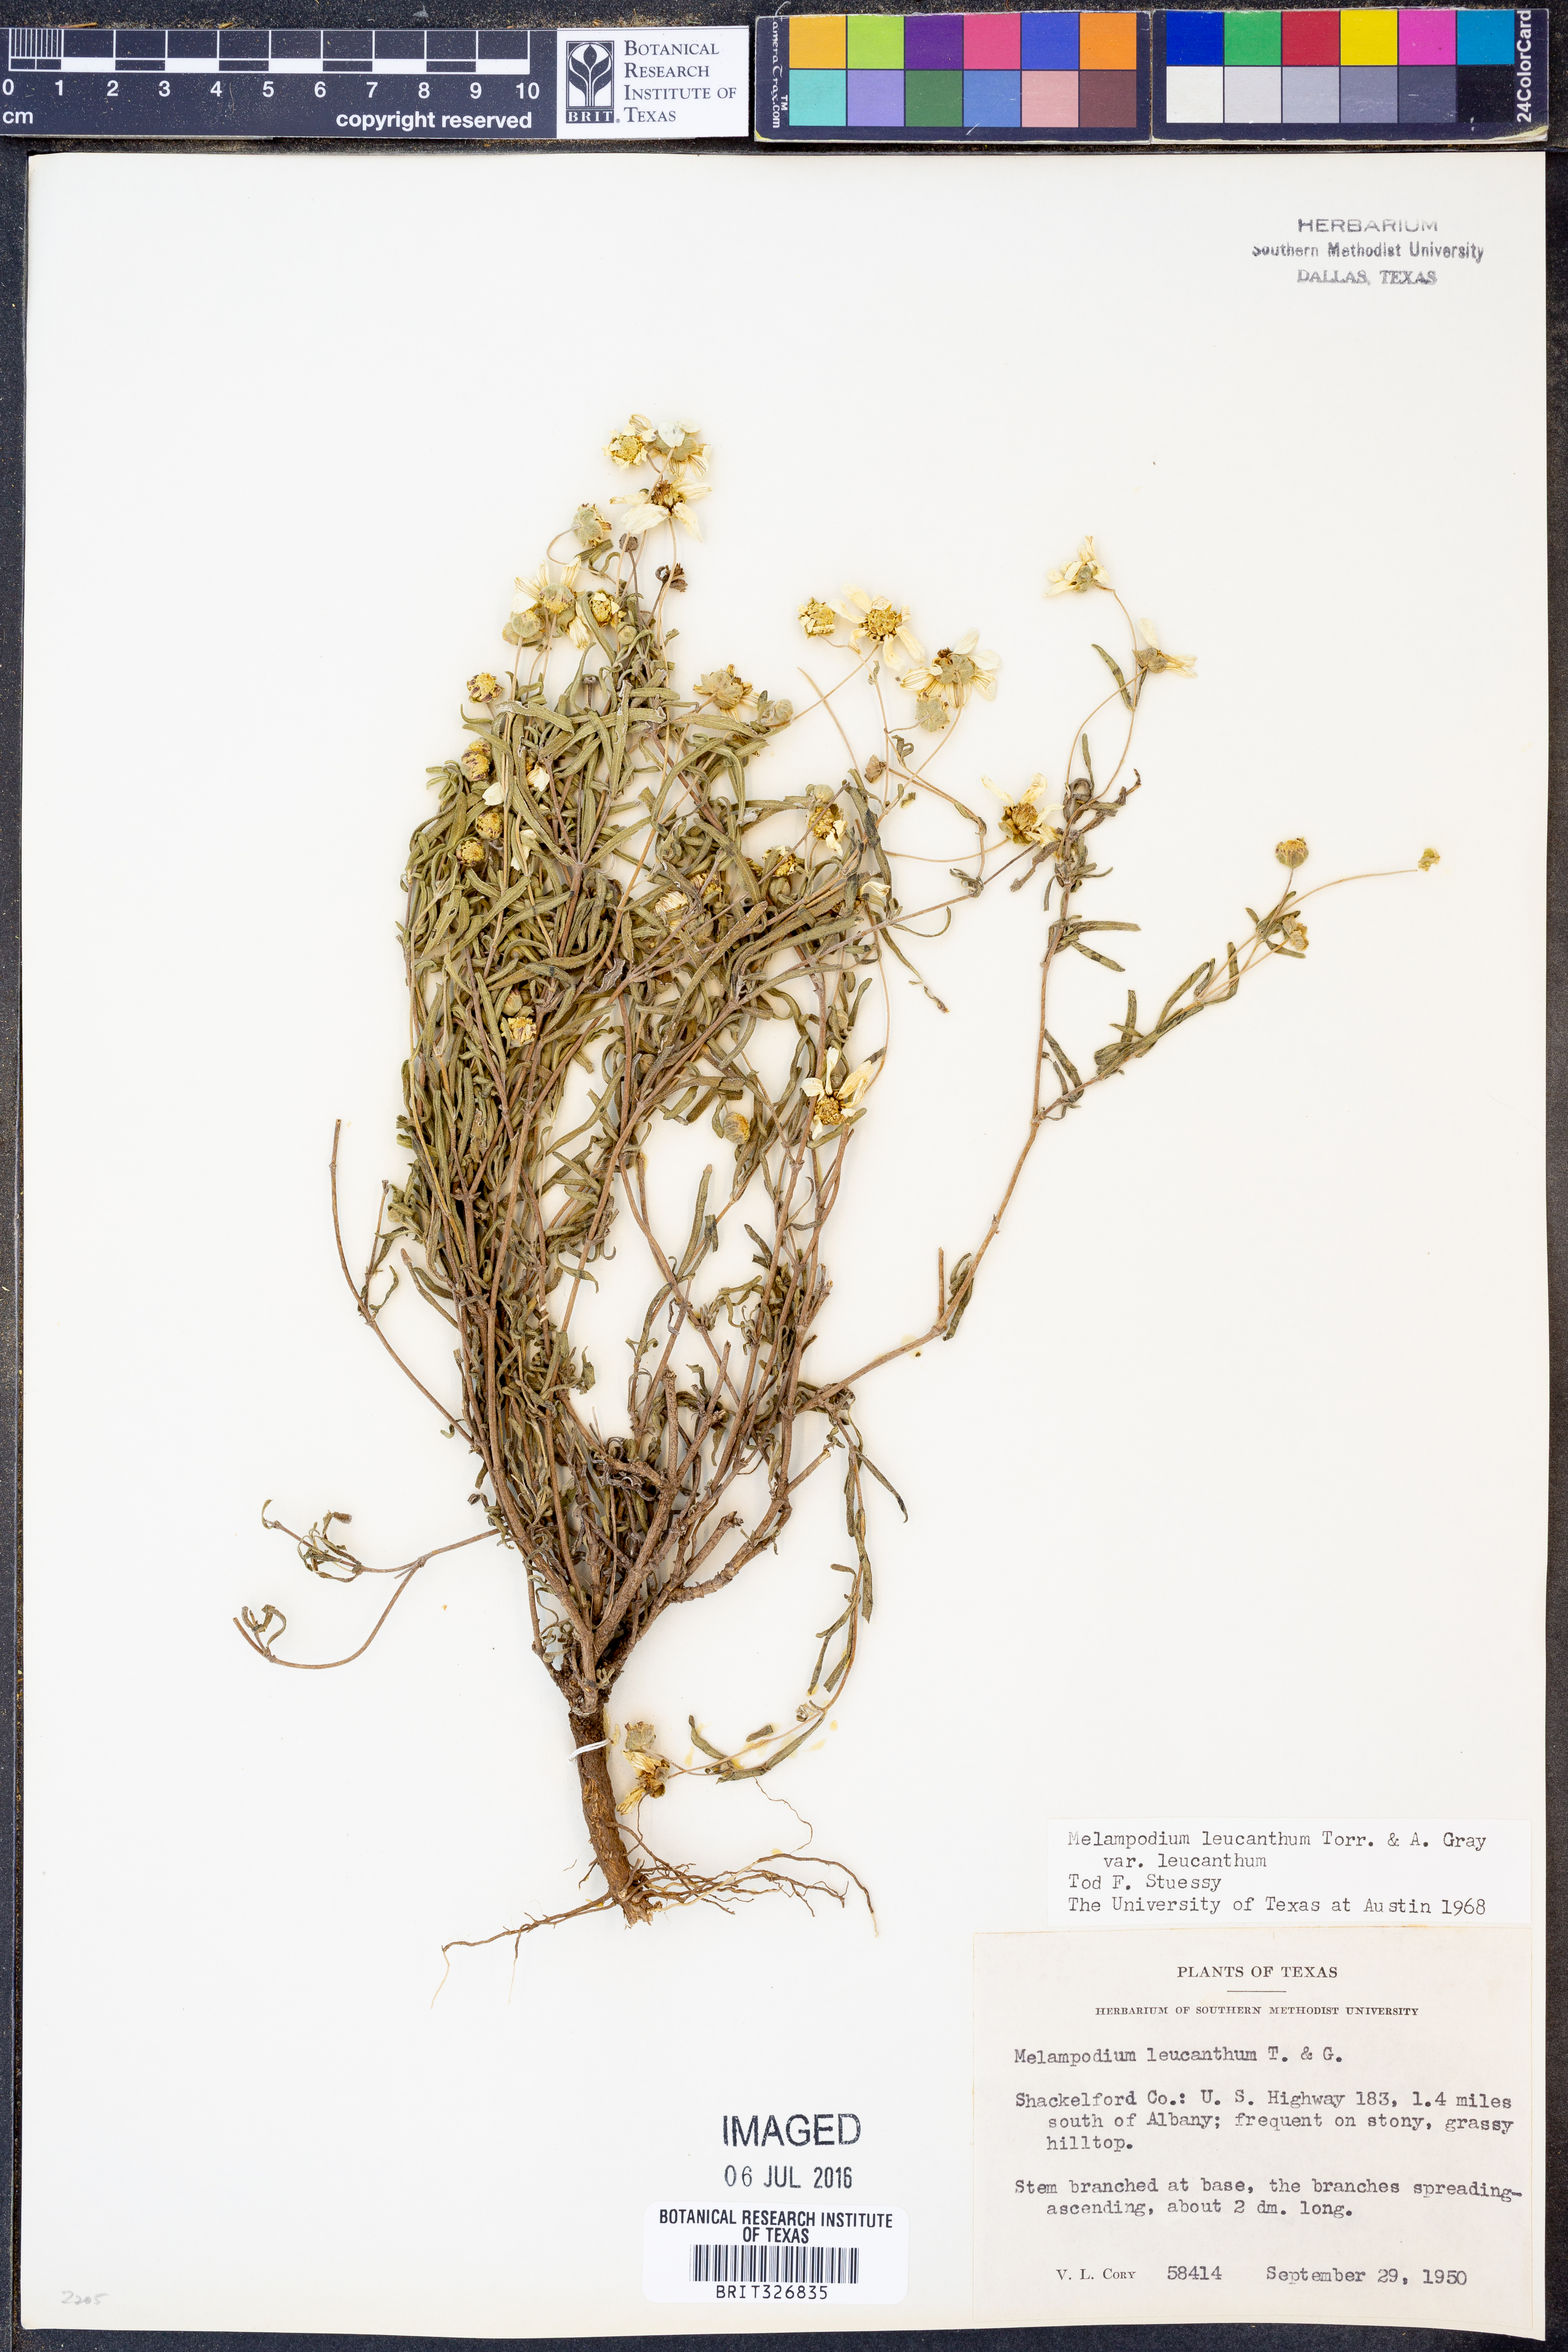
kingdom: Plantae
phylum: Tracheophyta
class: Magnoliopsida
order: Asterales
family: Asteraceae
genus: Melampodium
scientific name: Melampodium leucanthum
